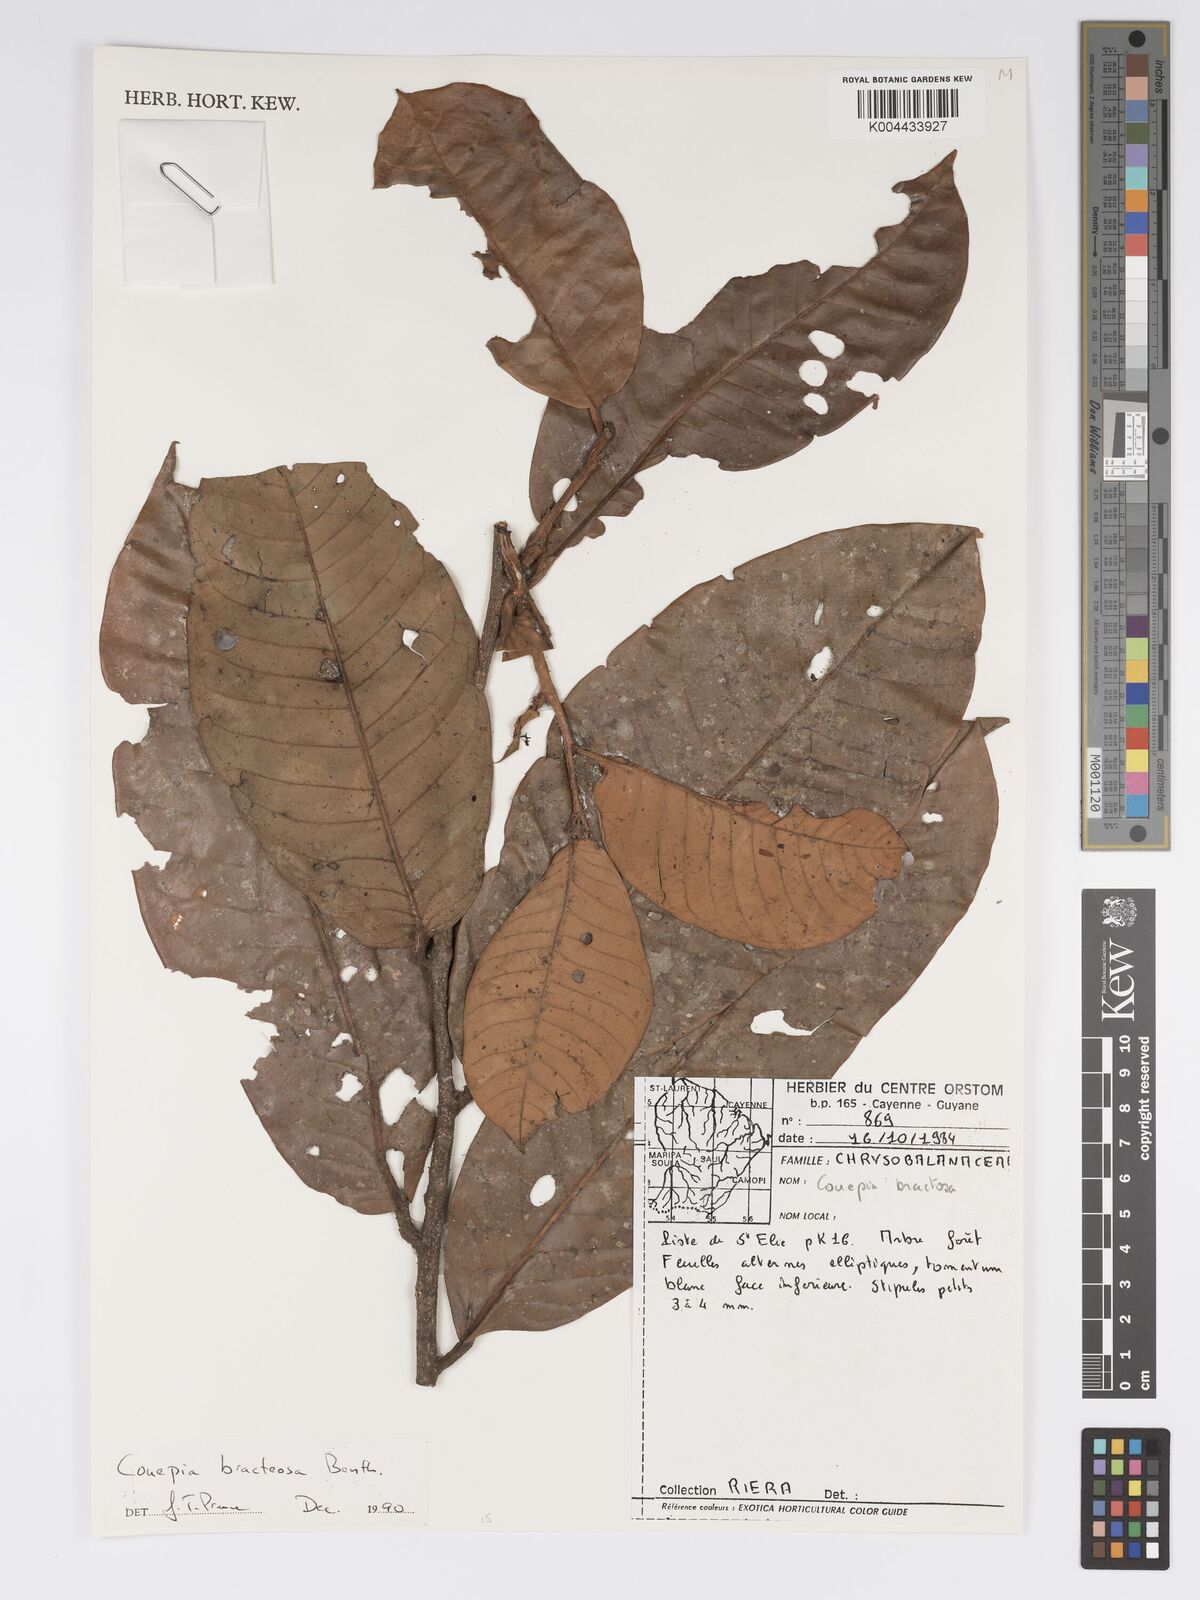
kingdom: Plantae
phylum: Tracheophyta
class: Magnoliopsida
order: Malpighiales
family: Chrysobalanaceae
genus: Couepia
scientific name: Couepia bracteosa
